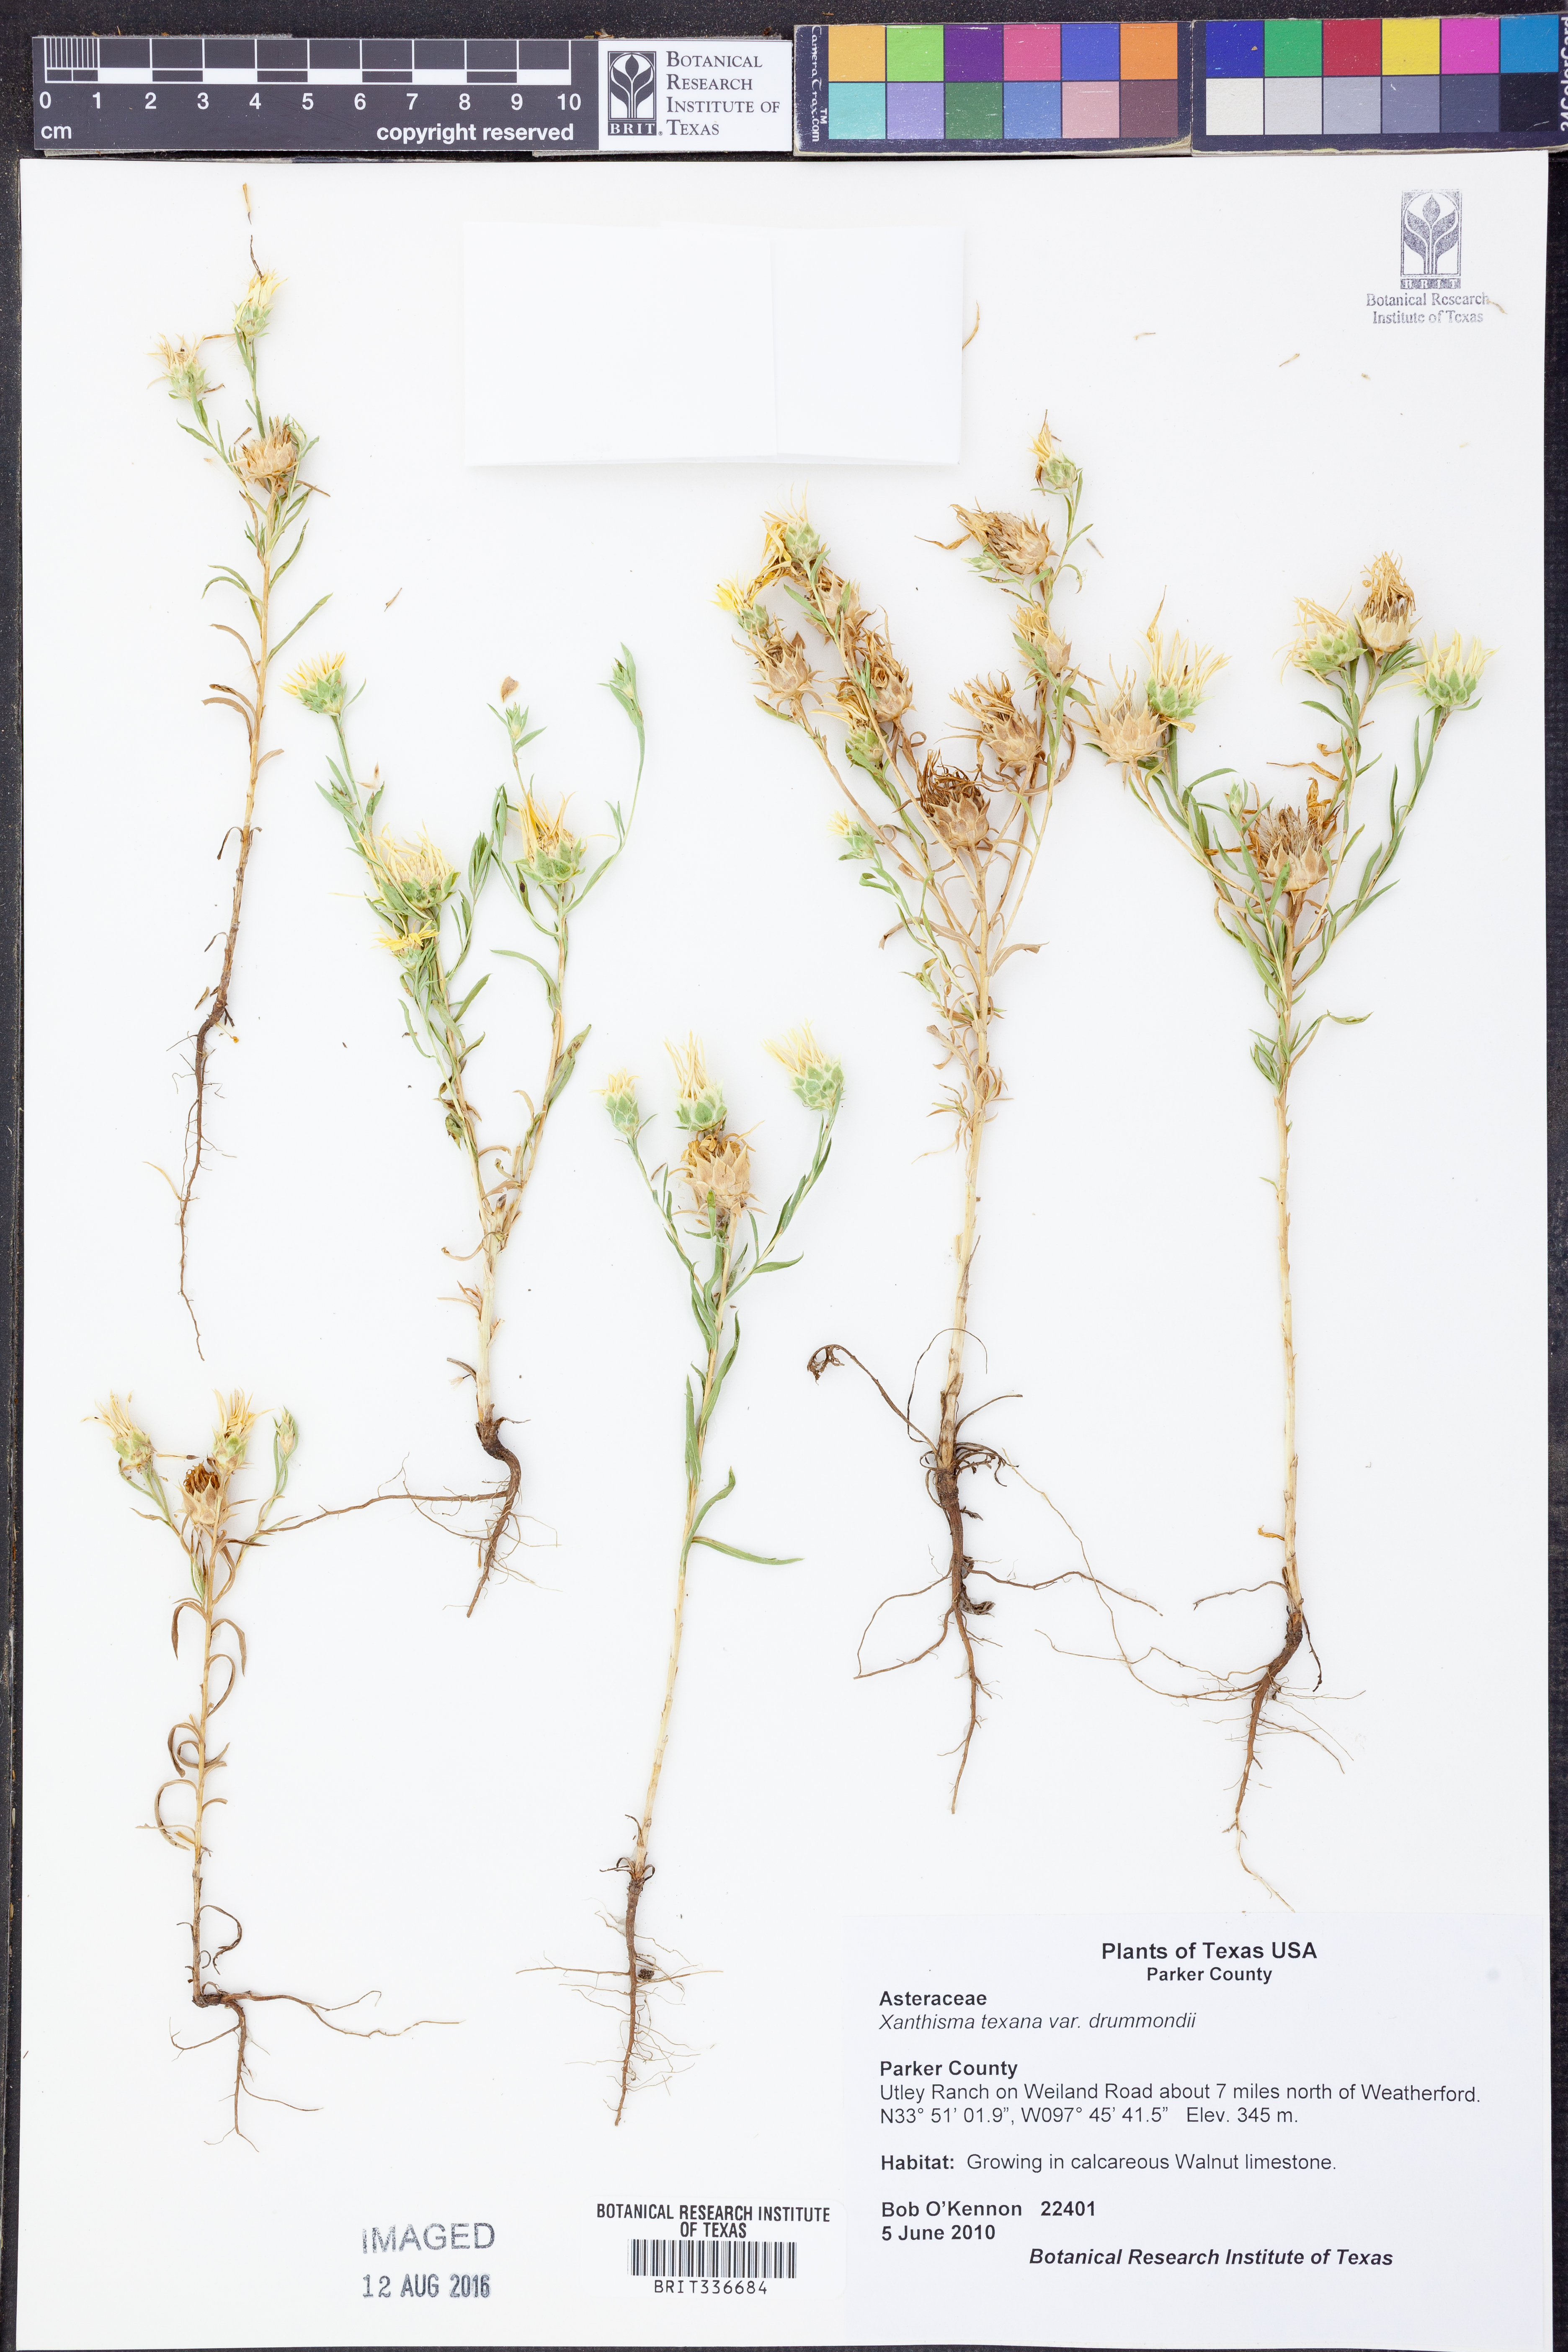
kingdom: Plantae
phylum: Tracheophyta
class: Magnoliopsida
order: Asterales
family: Asteraceae
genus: Xanthisma
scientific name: Xanthisma texanum
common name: Texas sleepy daisy
